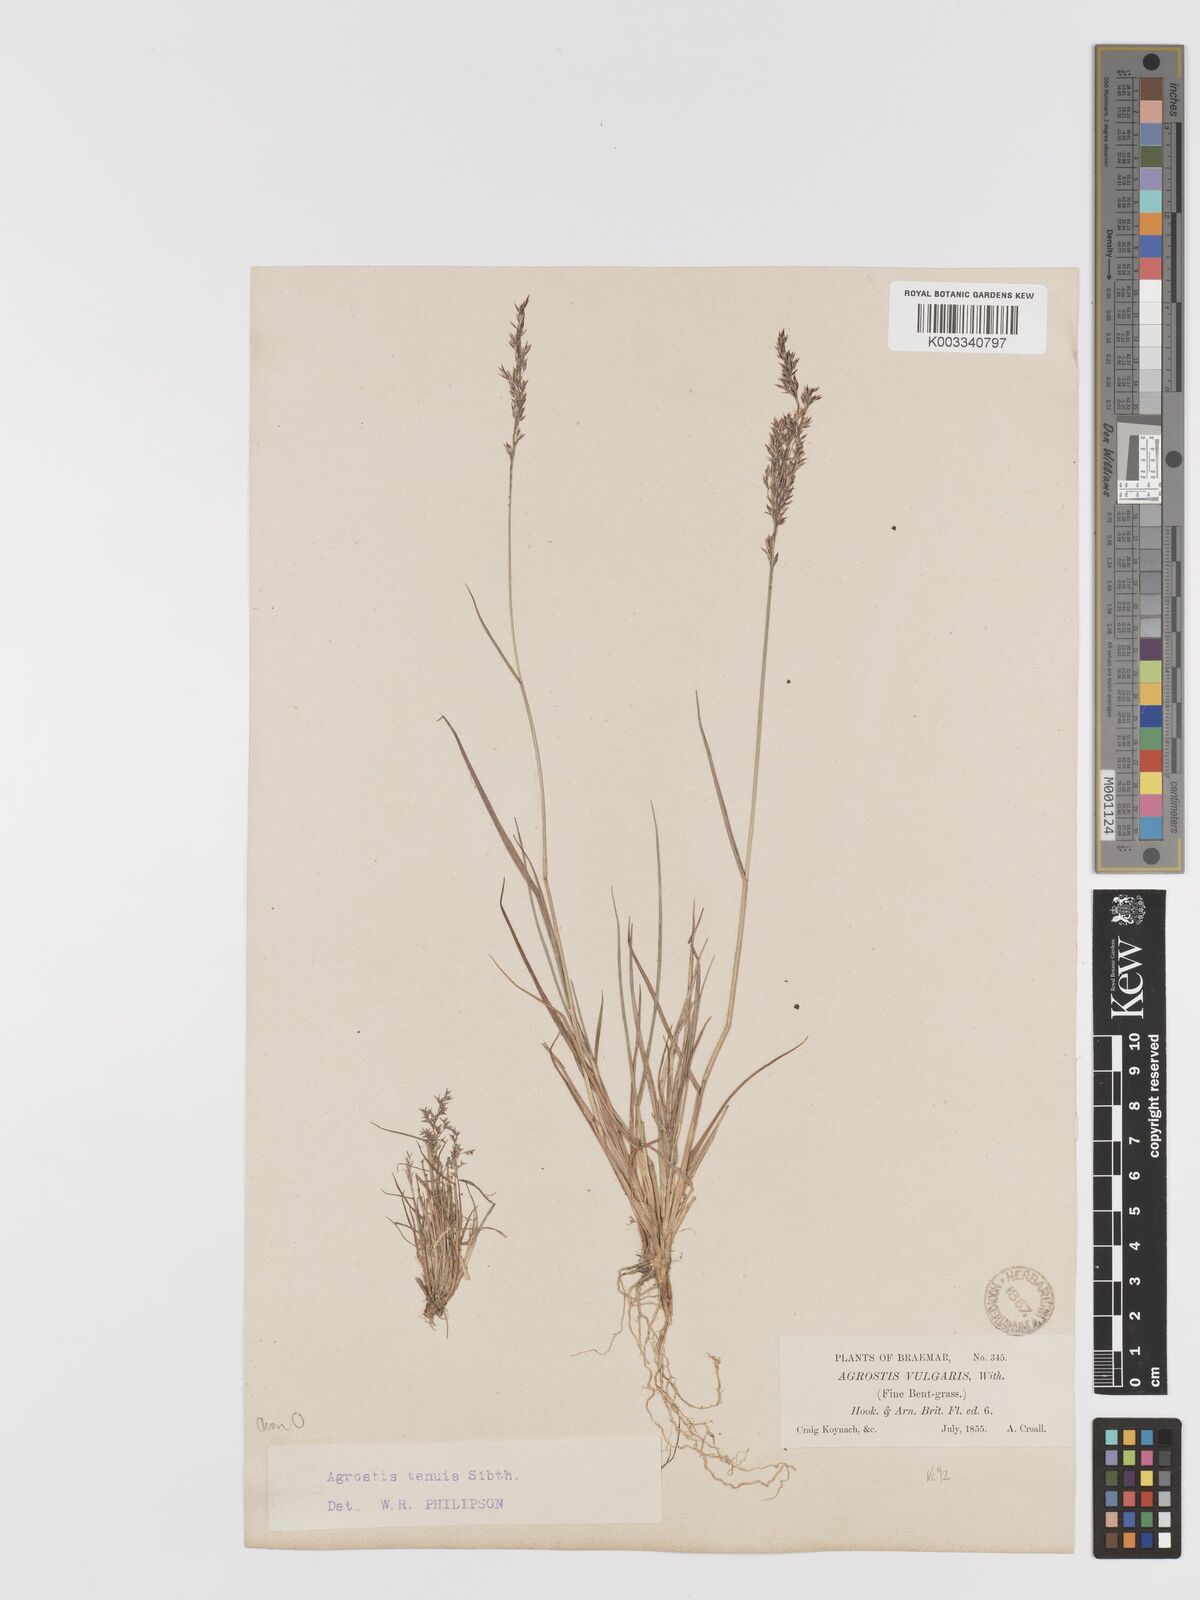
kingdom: Plantae
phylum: Tracheophyta
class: Liliopsida
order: Poales
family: Poaceae
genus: Agrostis
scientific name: Agrostis capillaris
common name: Colonial bentgrass
